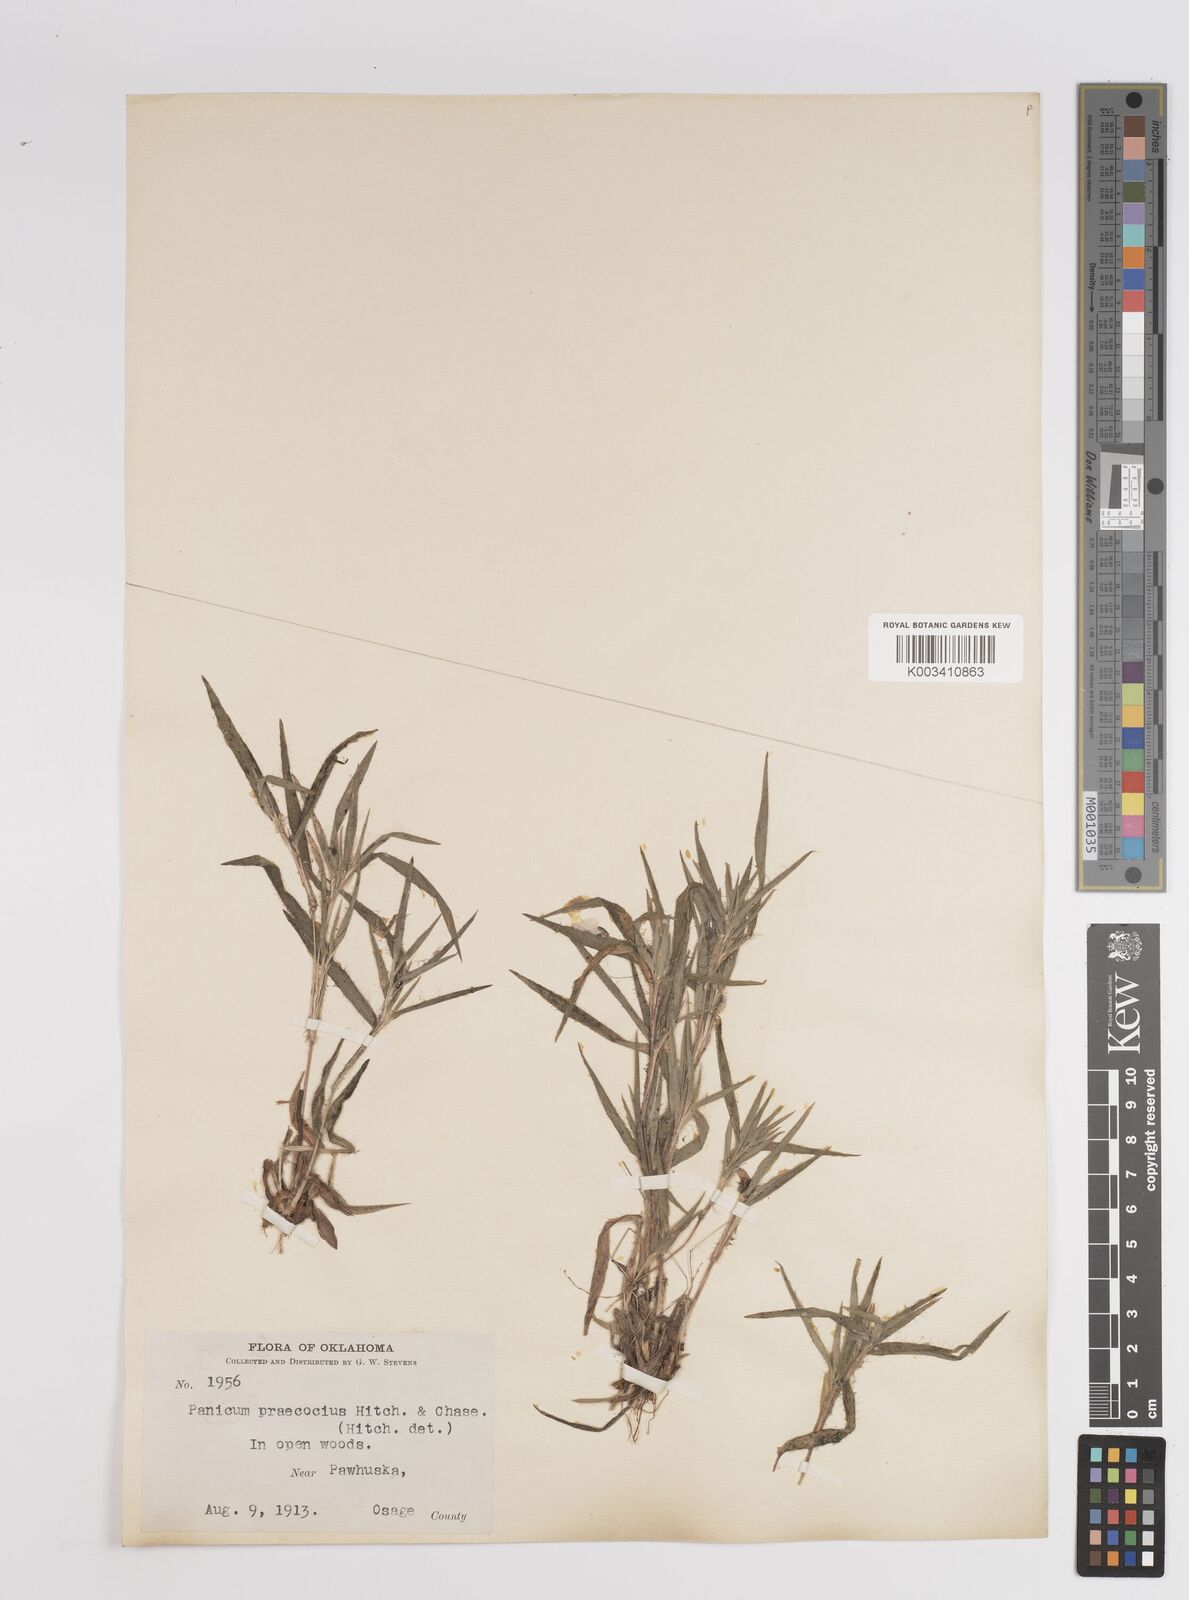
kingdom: Plantae
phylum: Tracheophyta
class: Liliopsida
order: Poales
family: Poaceae
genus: Dichanthelium
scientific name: Dichanthelium praecocius
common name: Early-branching panicgrass
